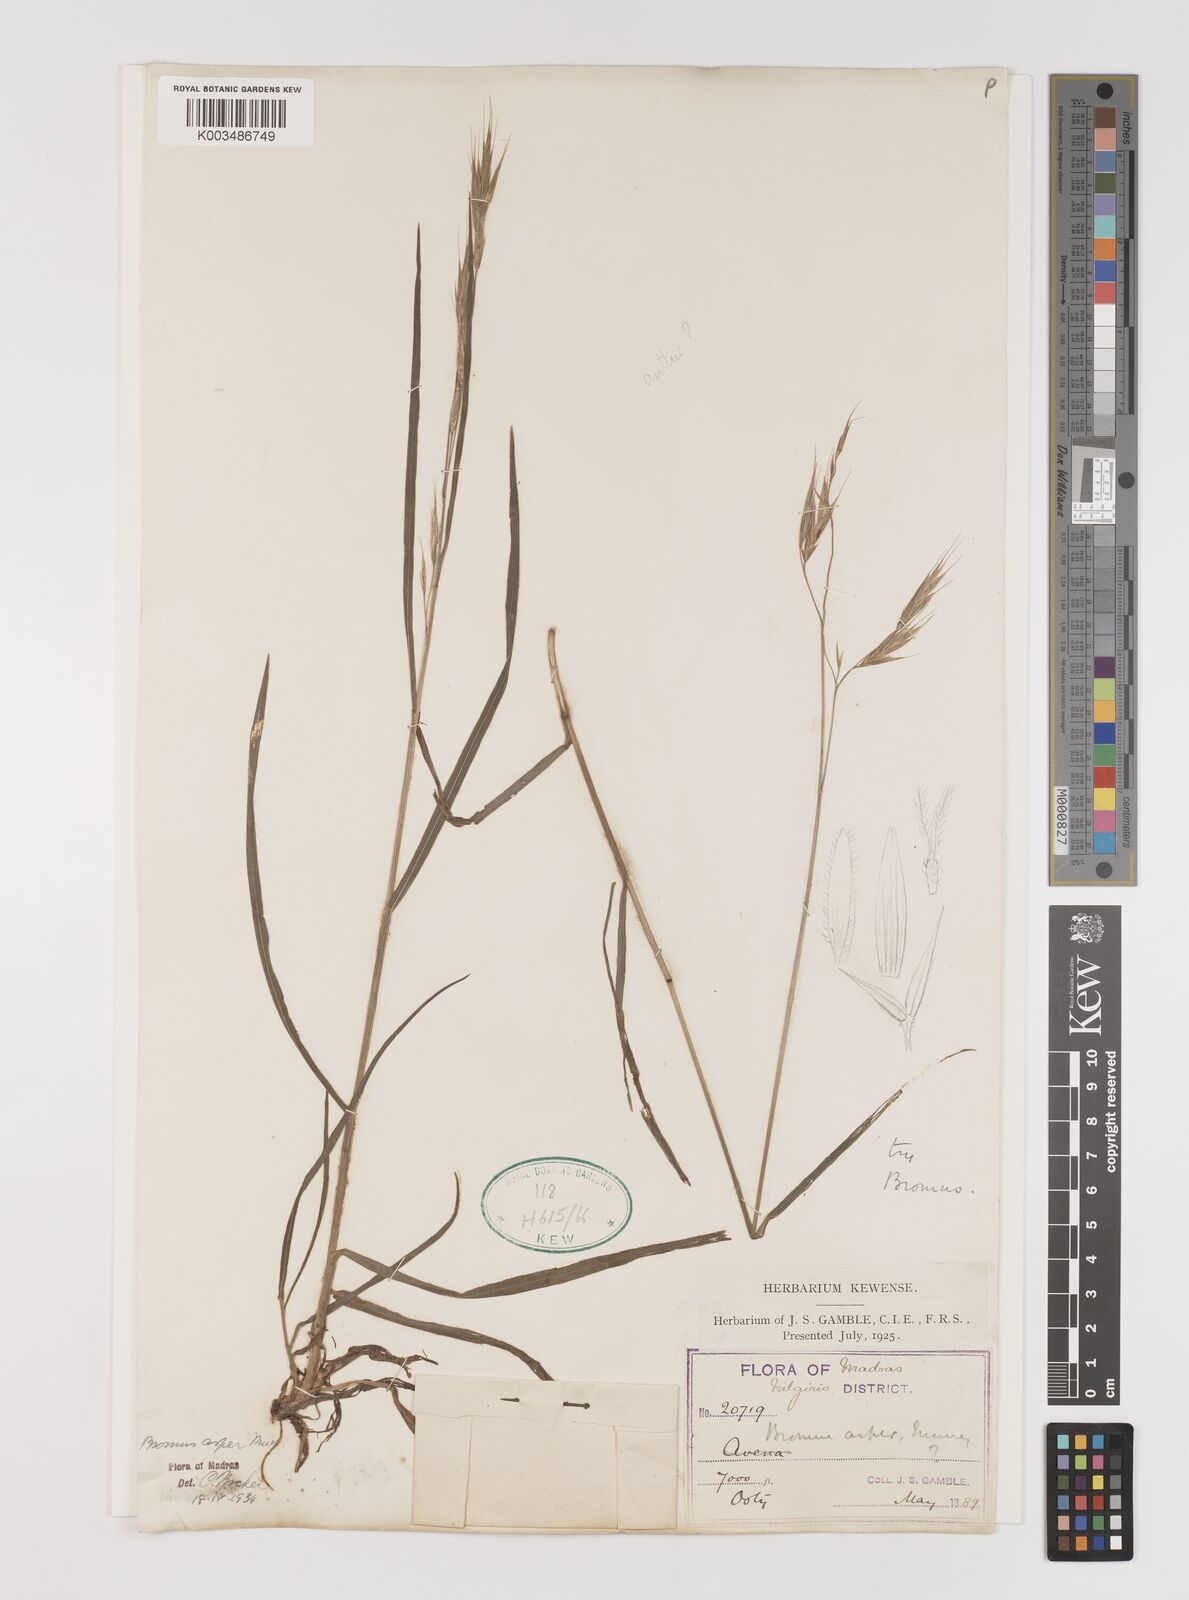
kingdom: Plantae
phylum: Tracheophyta
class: Liliopsida
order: Poales
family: Poaceae
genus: Brachypodium
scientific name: Brachypodium retusum
